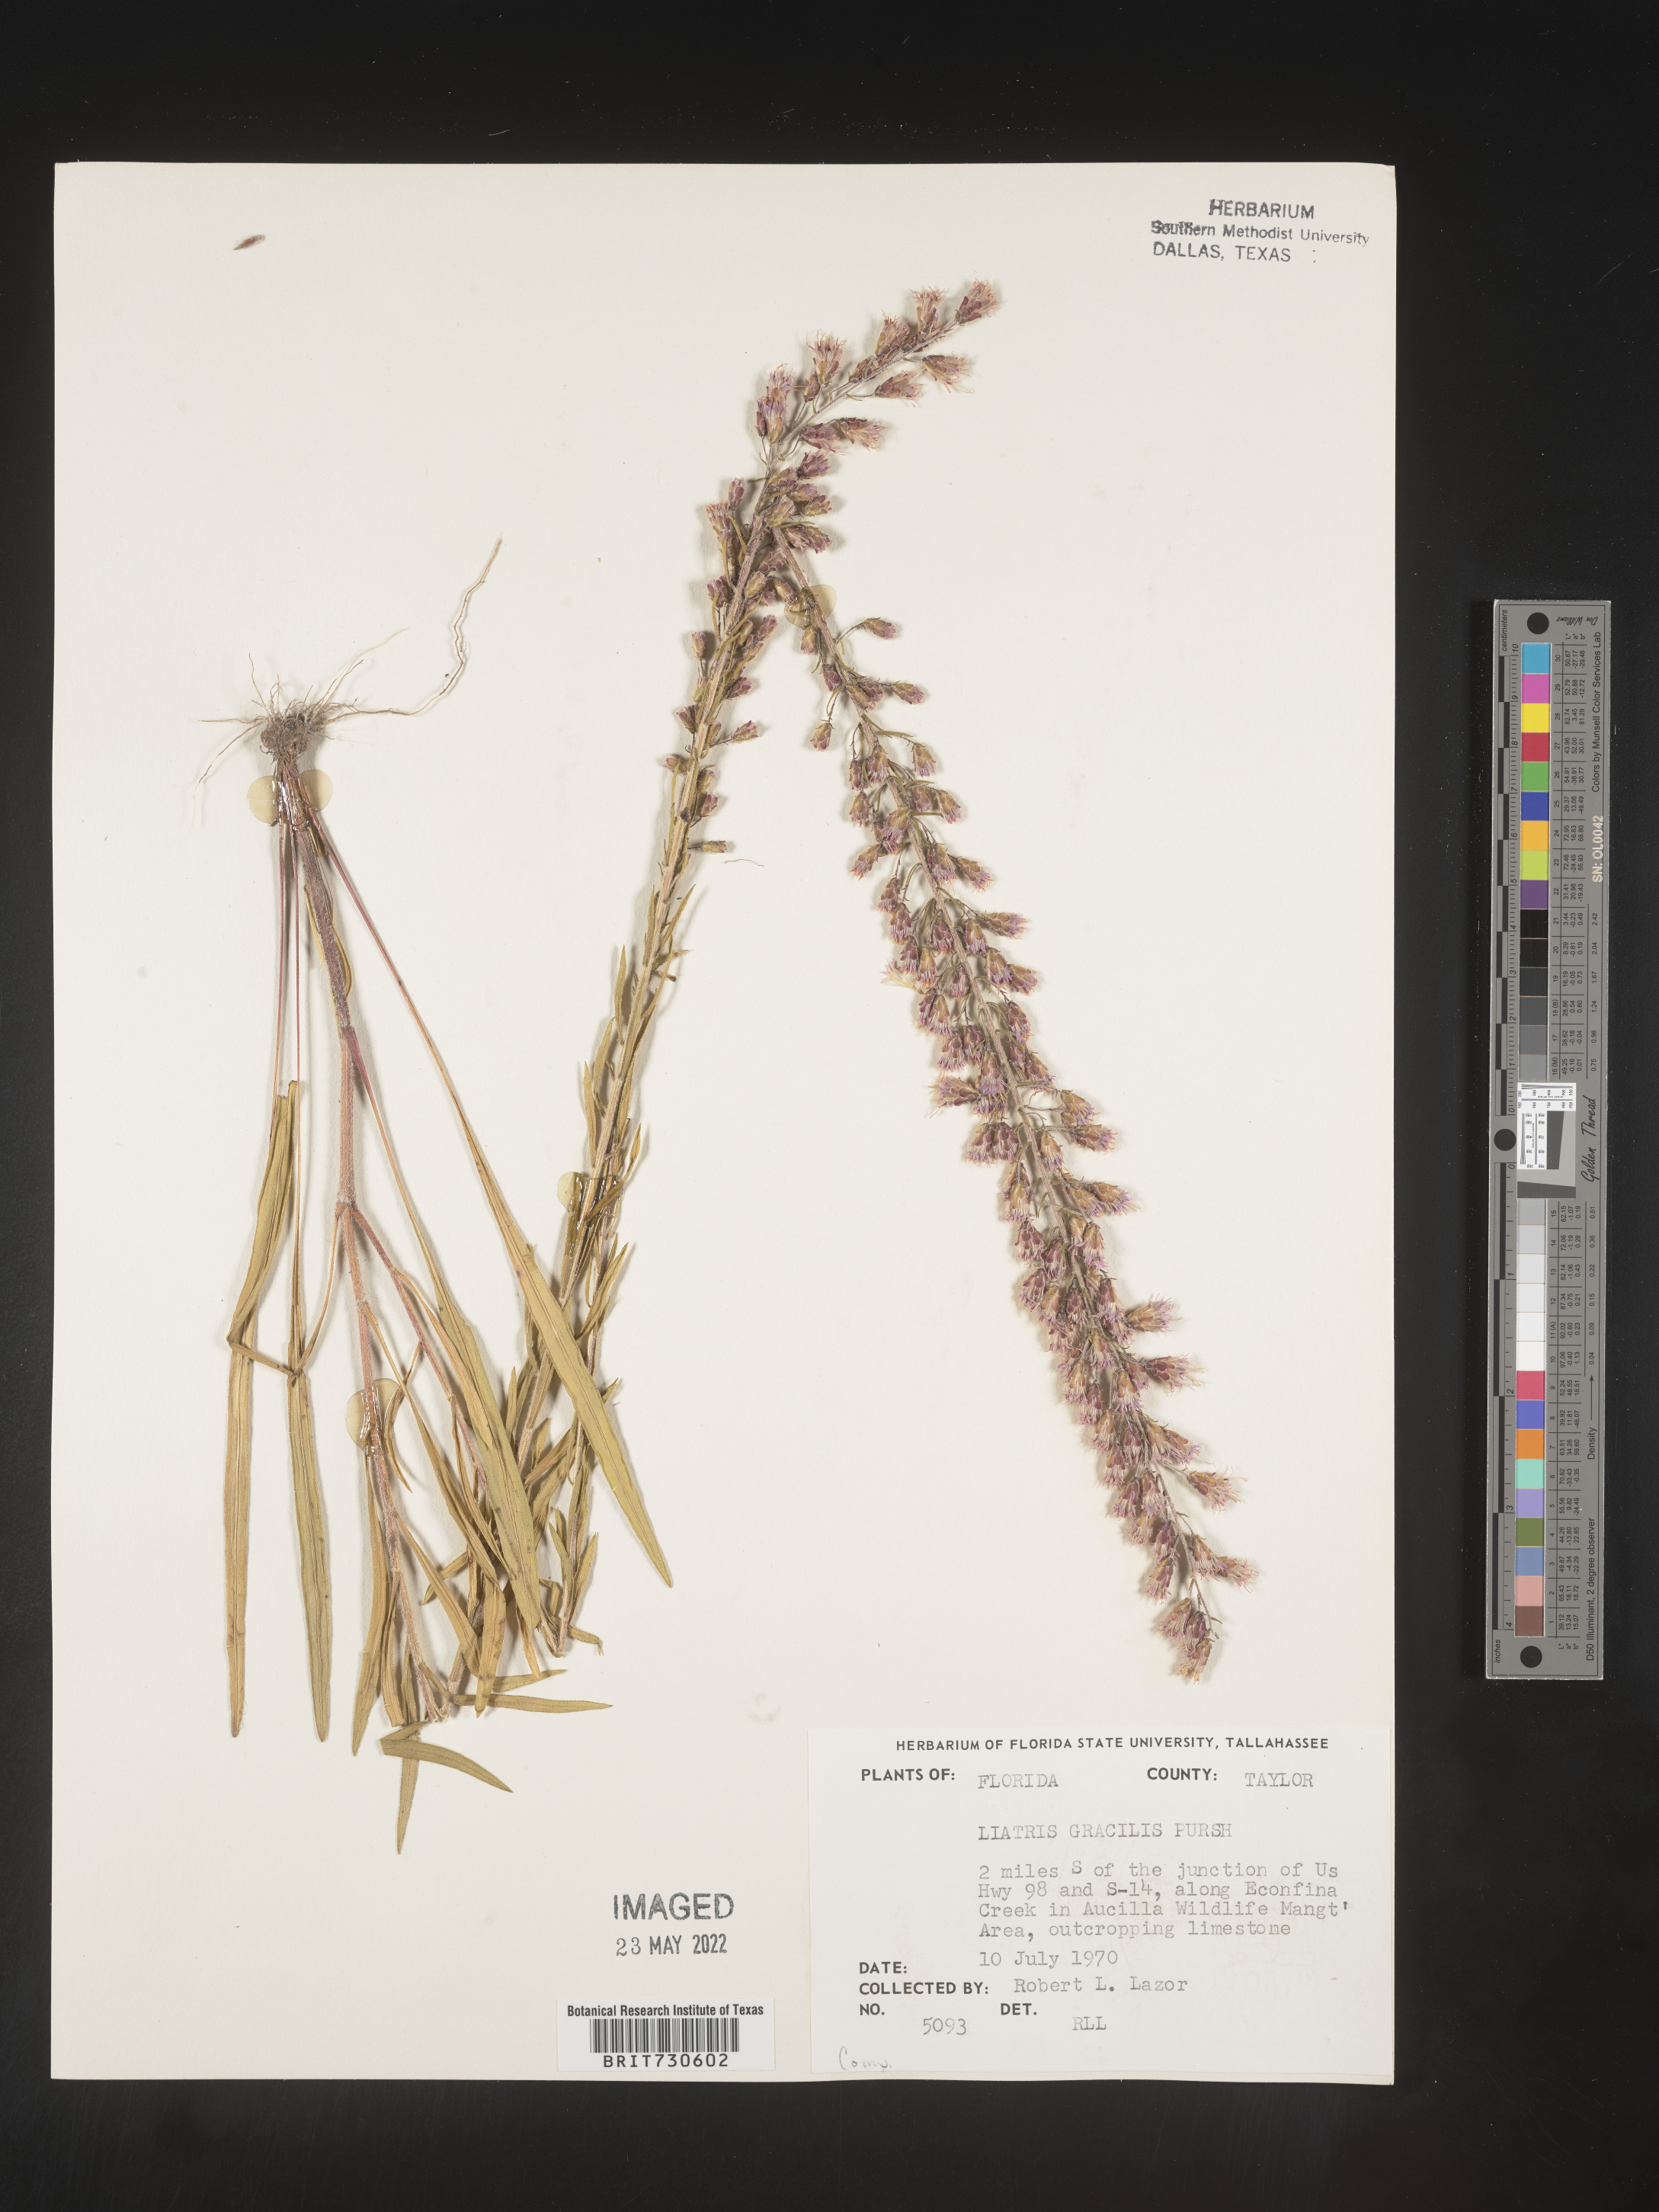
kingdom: Plantae
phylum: Tracheophyta
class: Magnoliopsida
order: Asterales
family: Asteraceae
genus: Liatris
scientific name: Liatris gracilis
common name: Slender gayfeather
